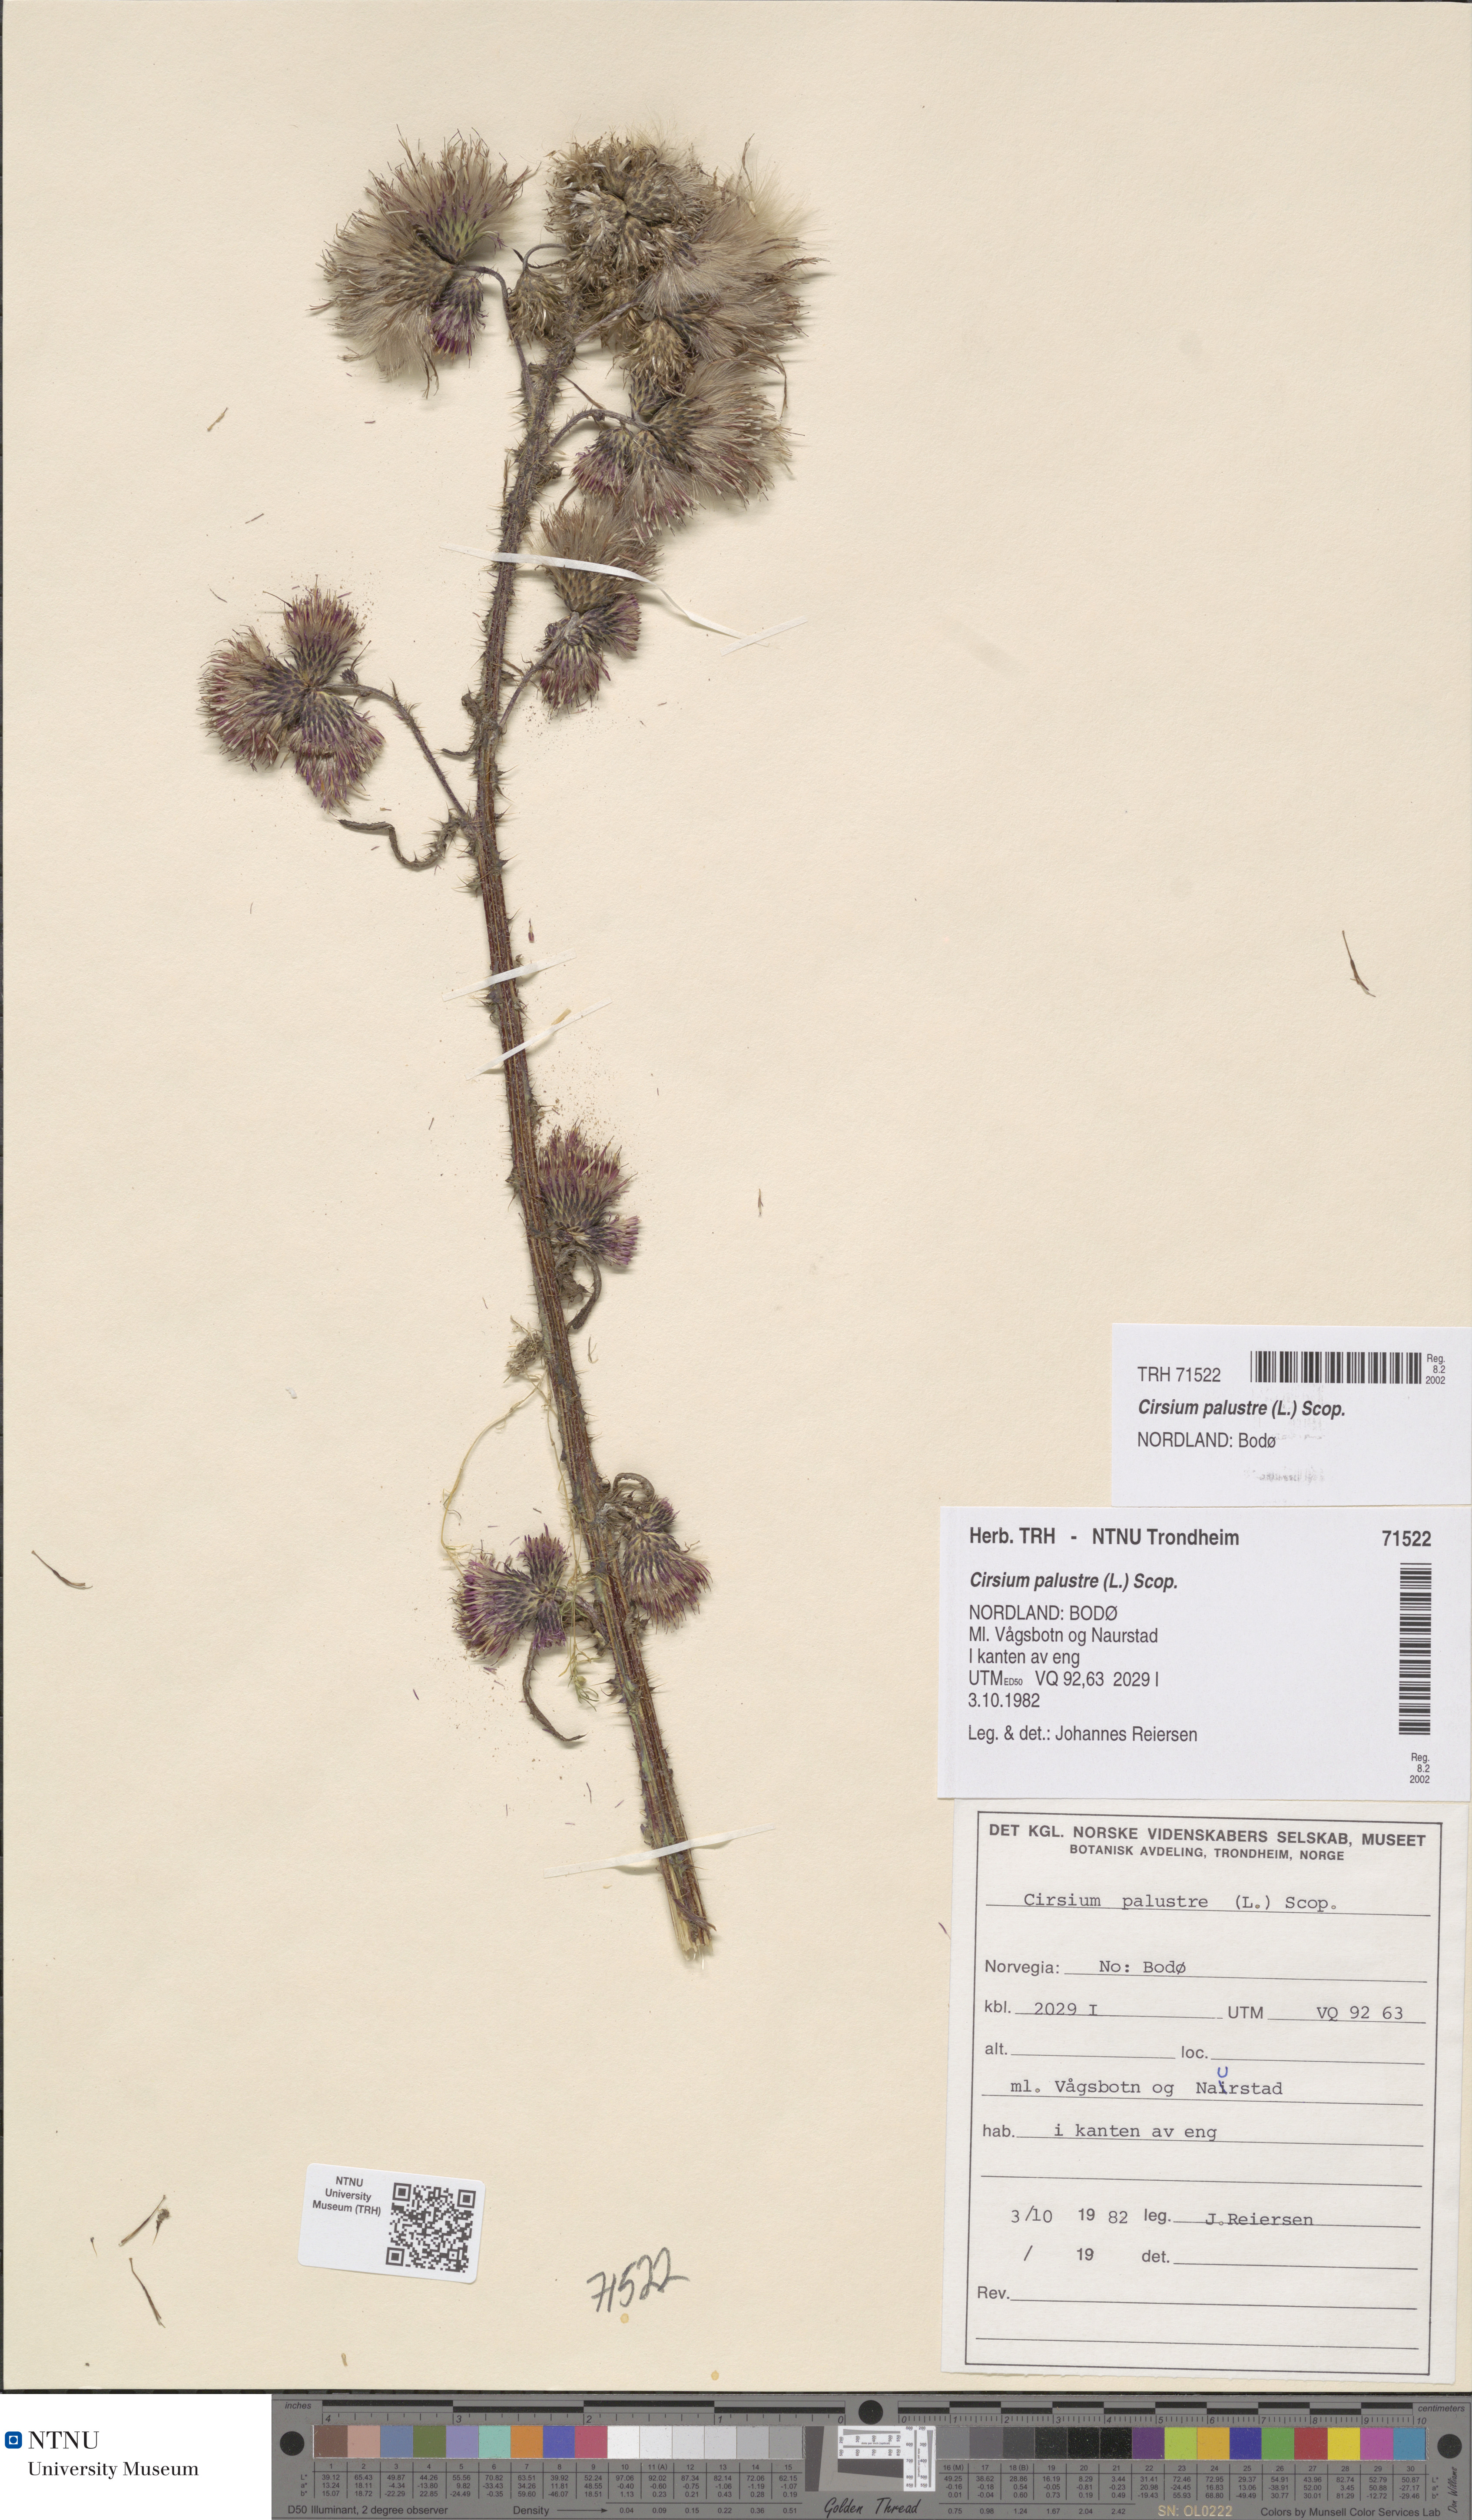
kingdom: Plantae
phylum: Tracheophyta
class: Magnoliopsida
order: Asterales
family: Asteraceae
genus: Cirsium
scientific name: Cirsium palustre
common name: Marsh thistle
